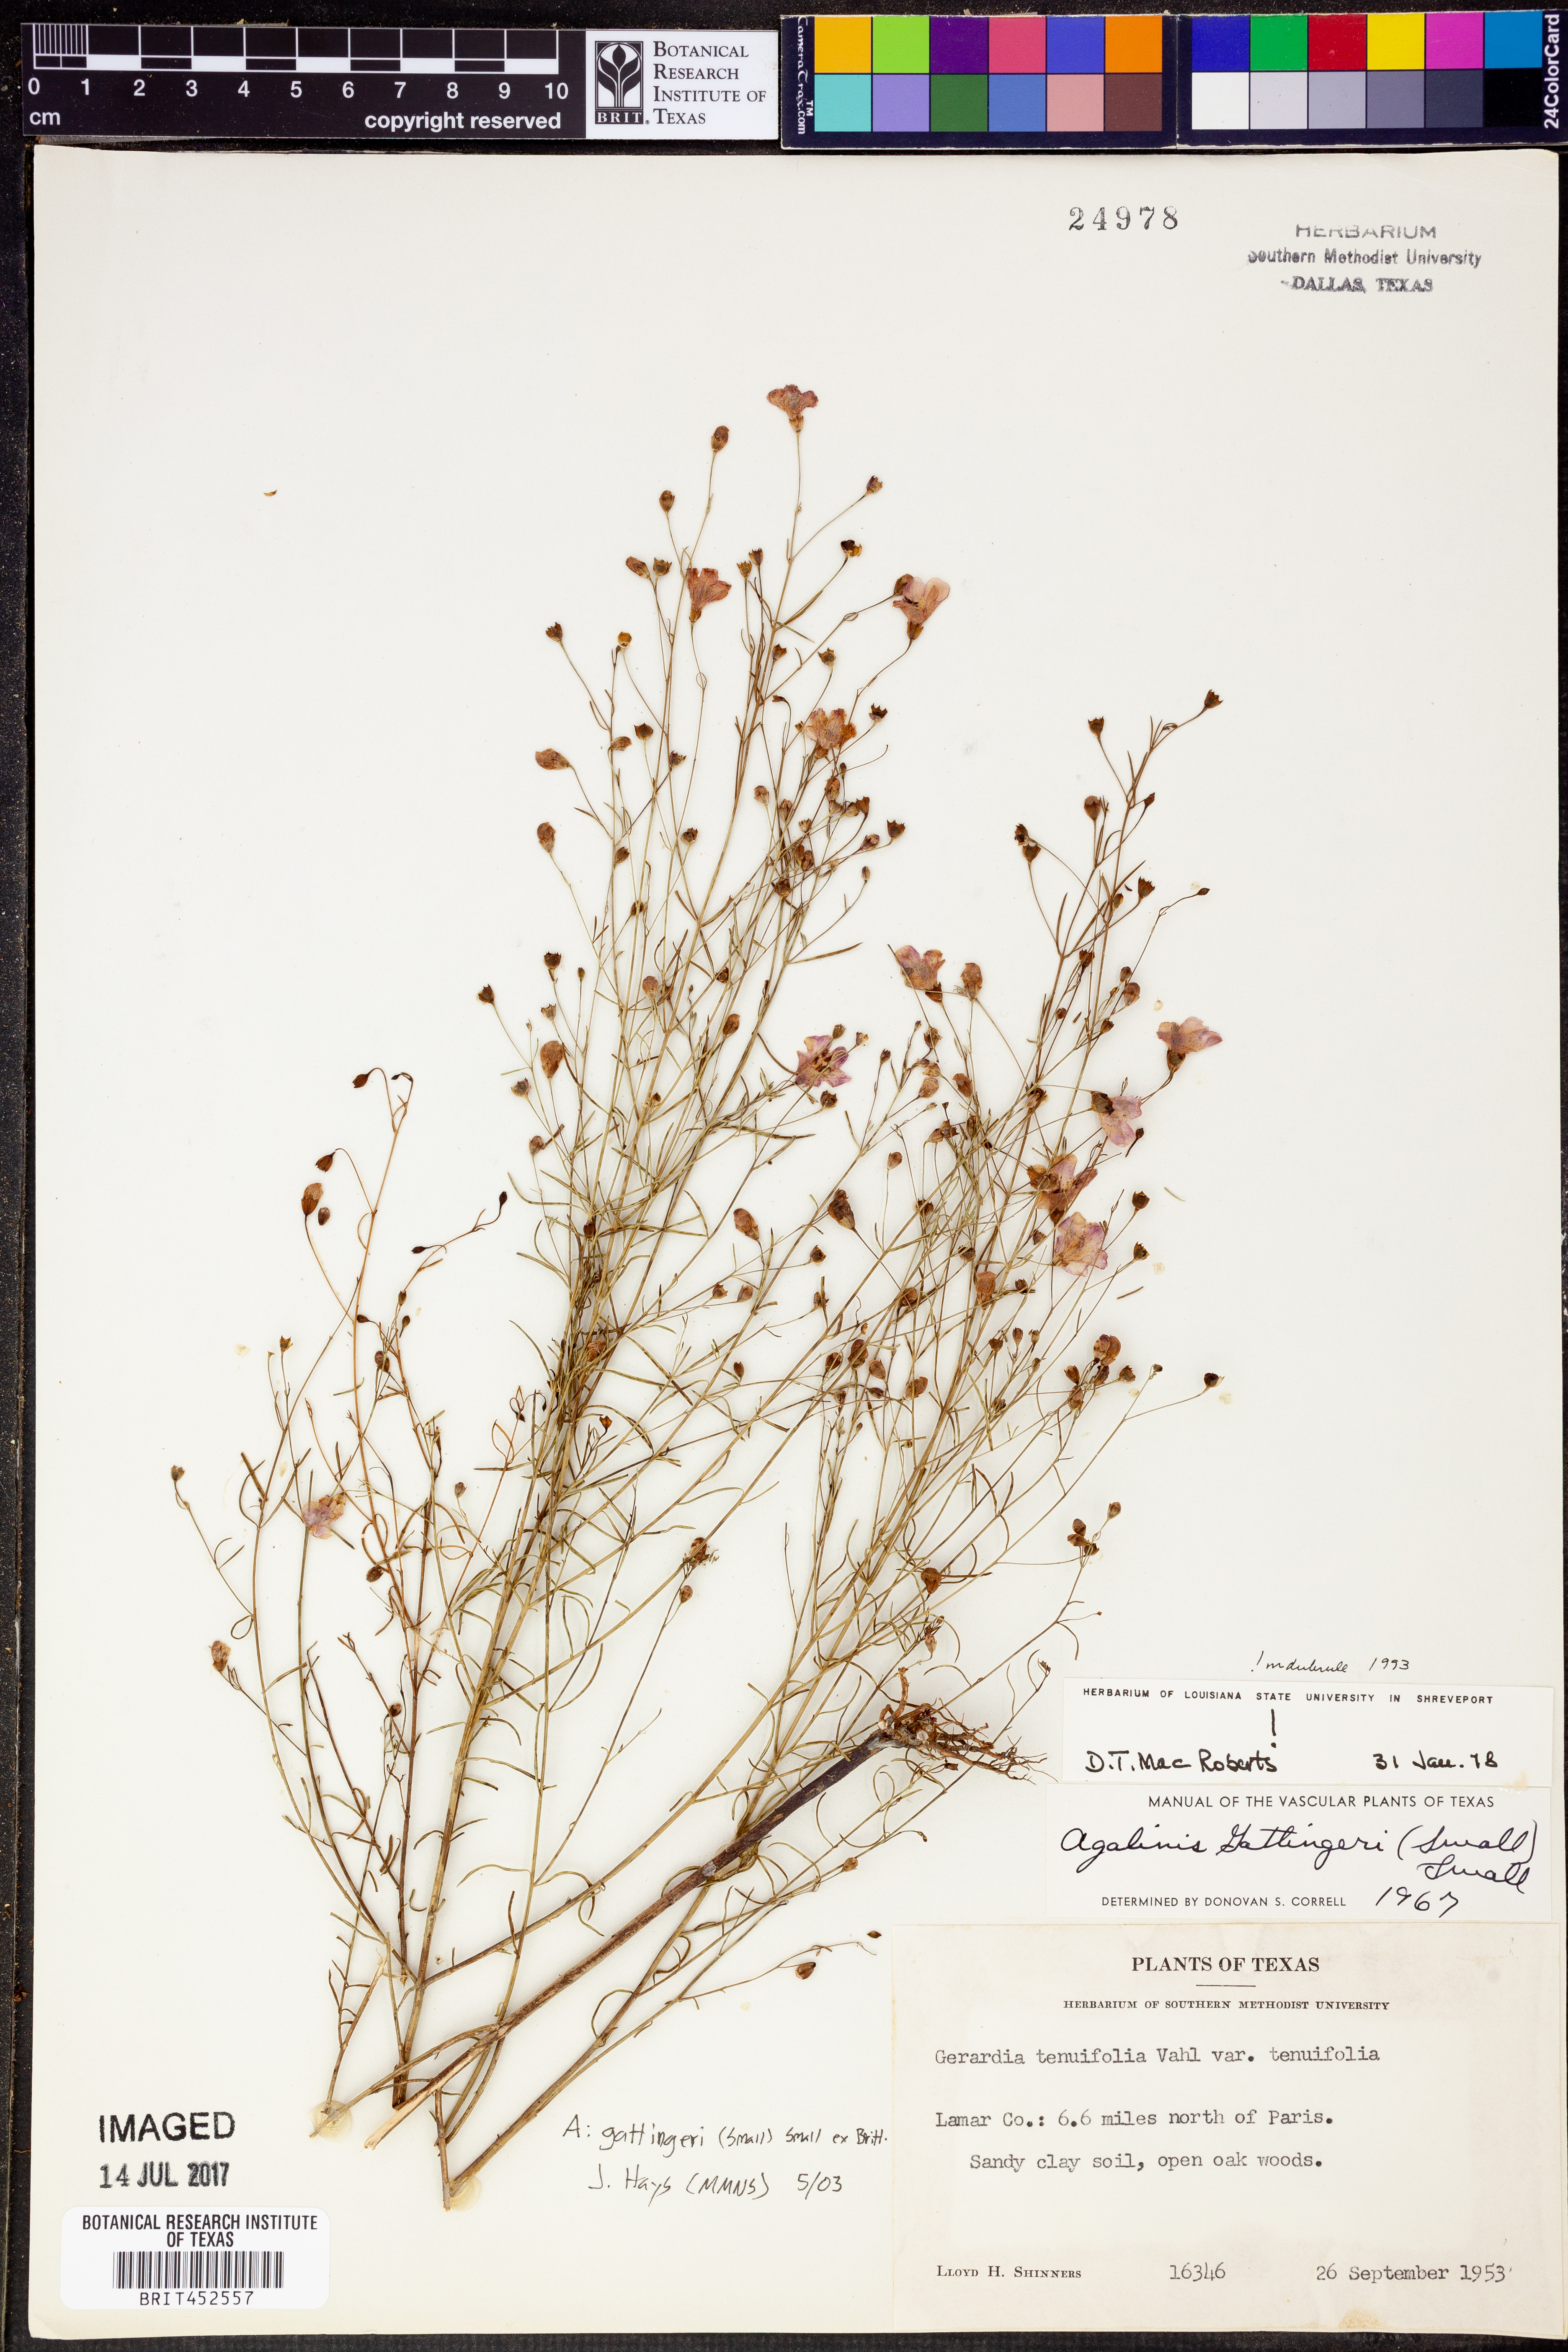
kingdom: Plantae
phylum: Tracheophyta
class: Magnoliopsida
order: Lamiales
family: Orobanchaceae
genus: Agalinis
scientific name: Agalinis gattingeri
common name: Gattinger's agalinis
